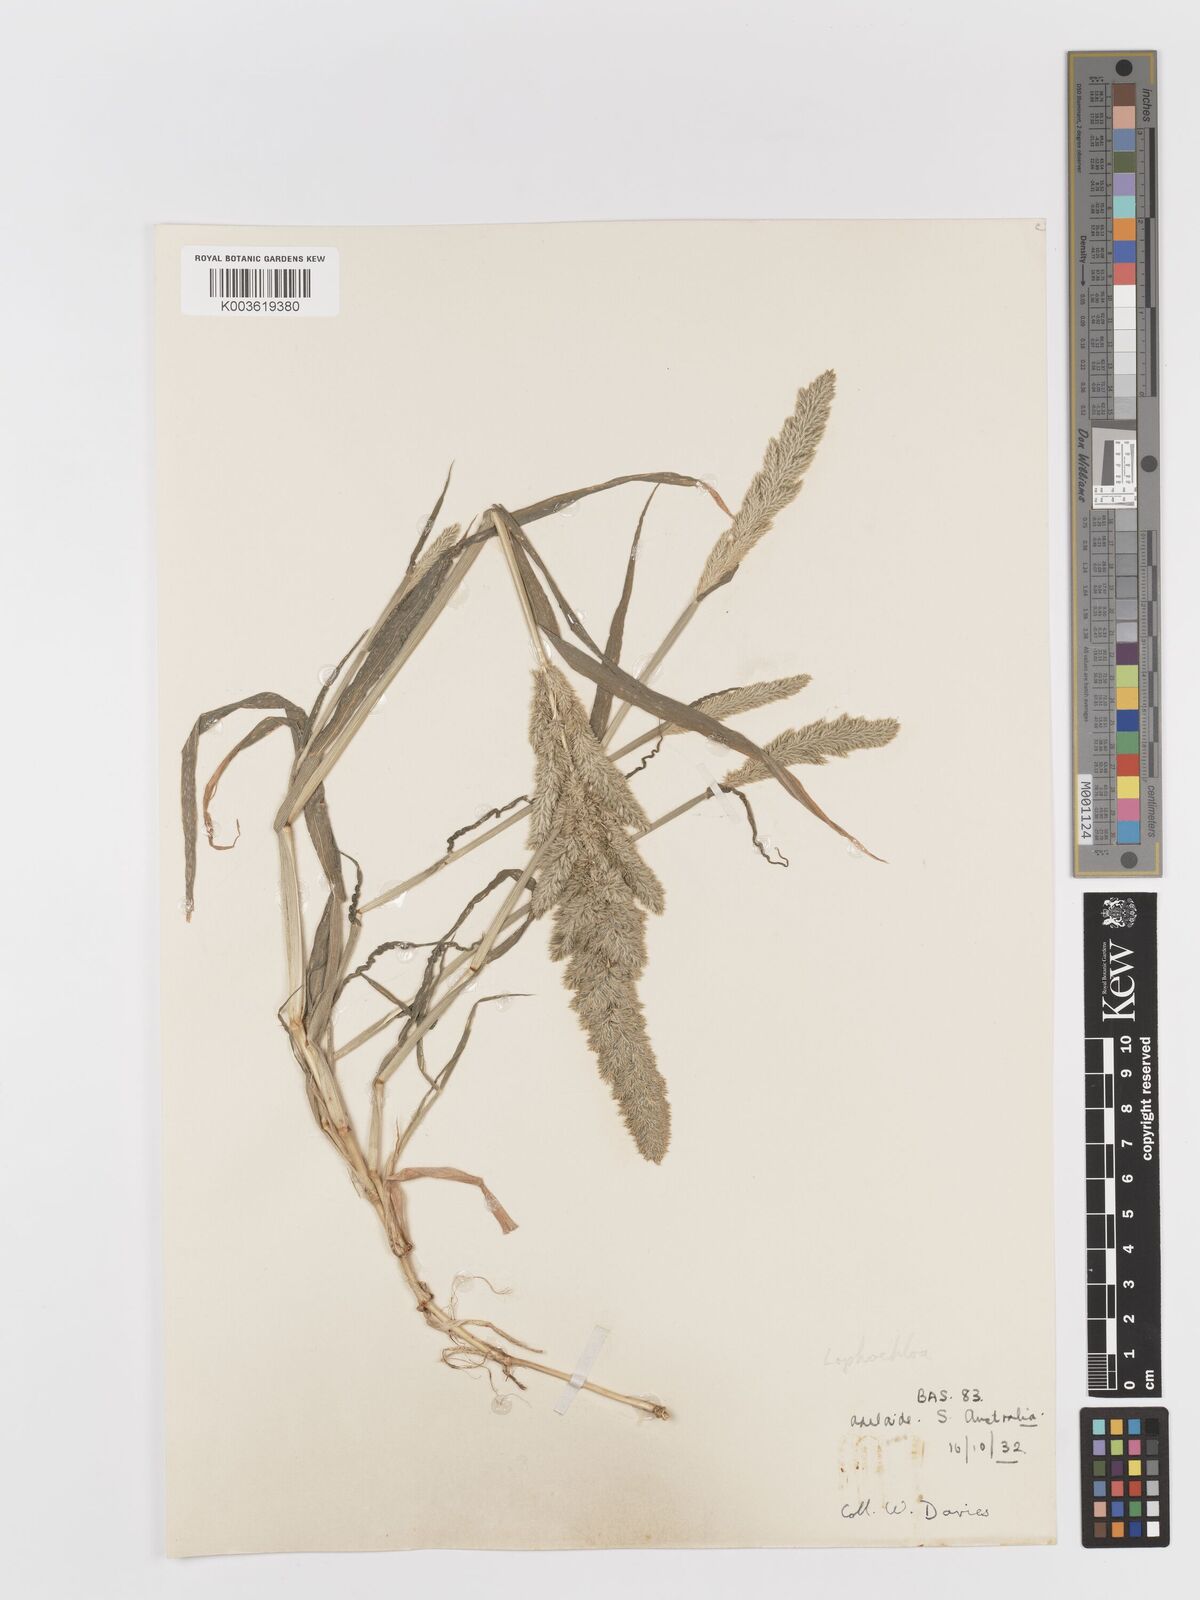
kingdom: Plantae
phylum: Tracheophyta
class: Liliopsida
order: Poales
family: Poaceae
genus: Rostraria
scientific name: Rostraria
